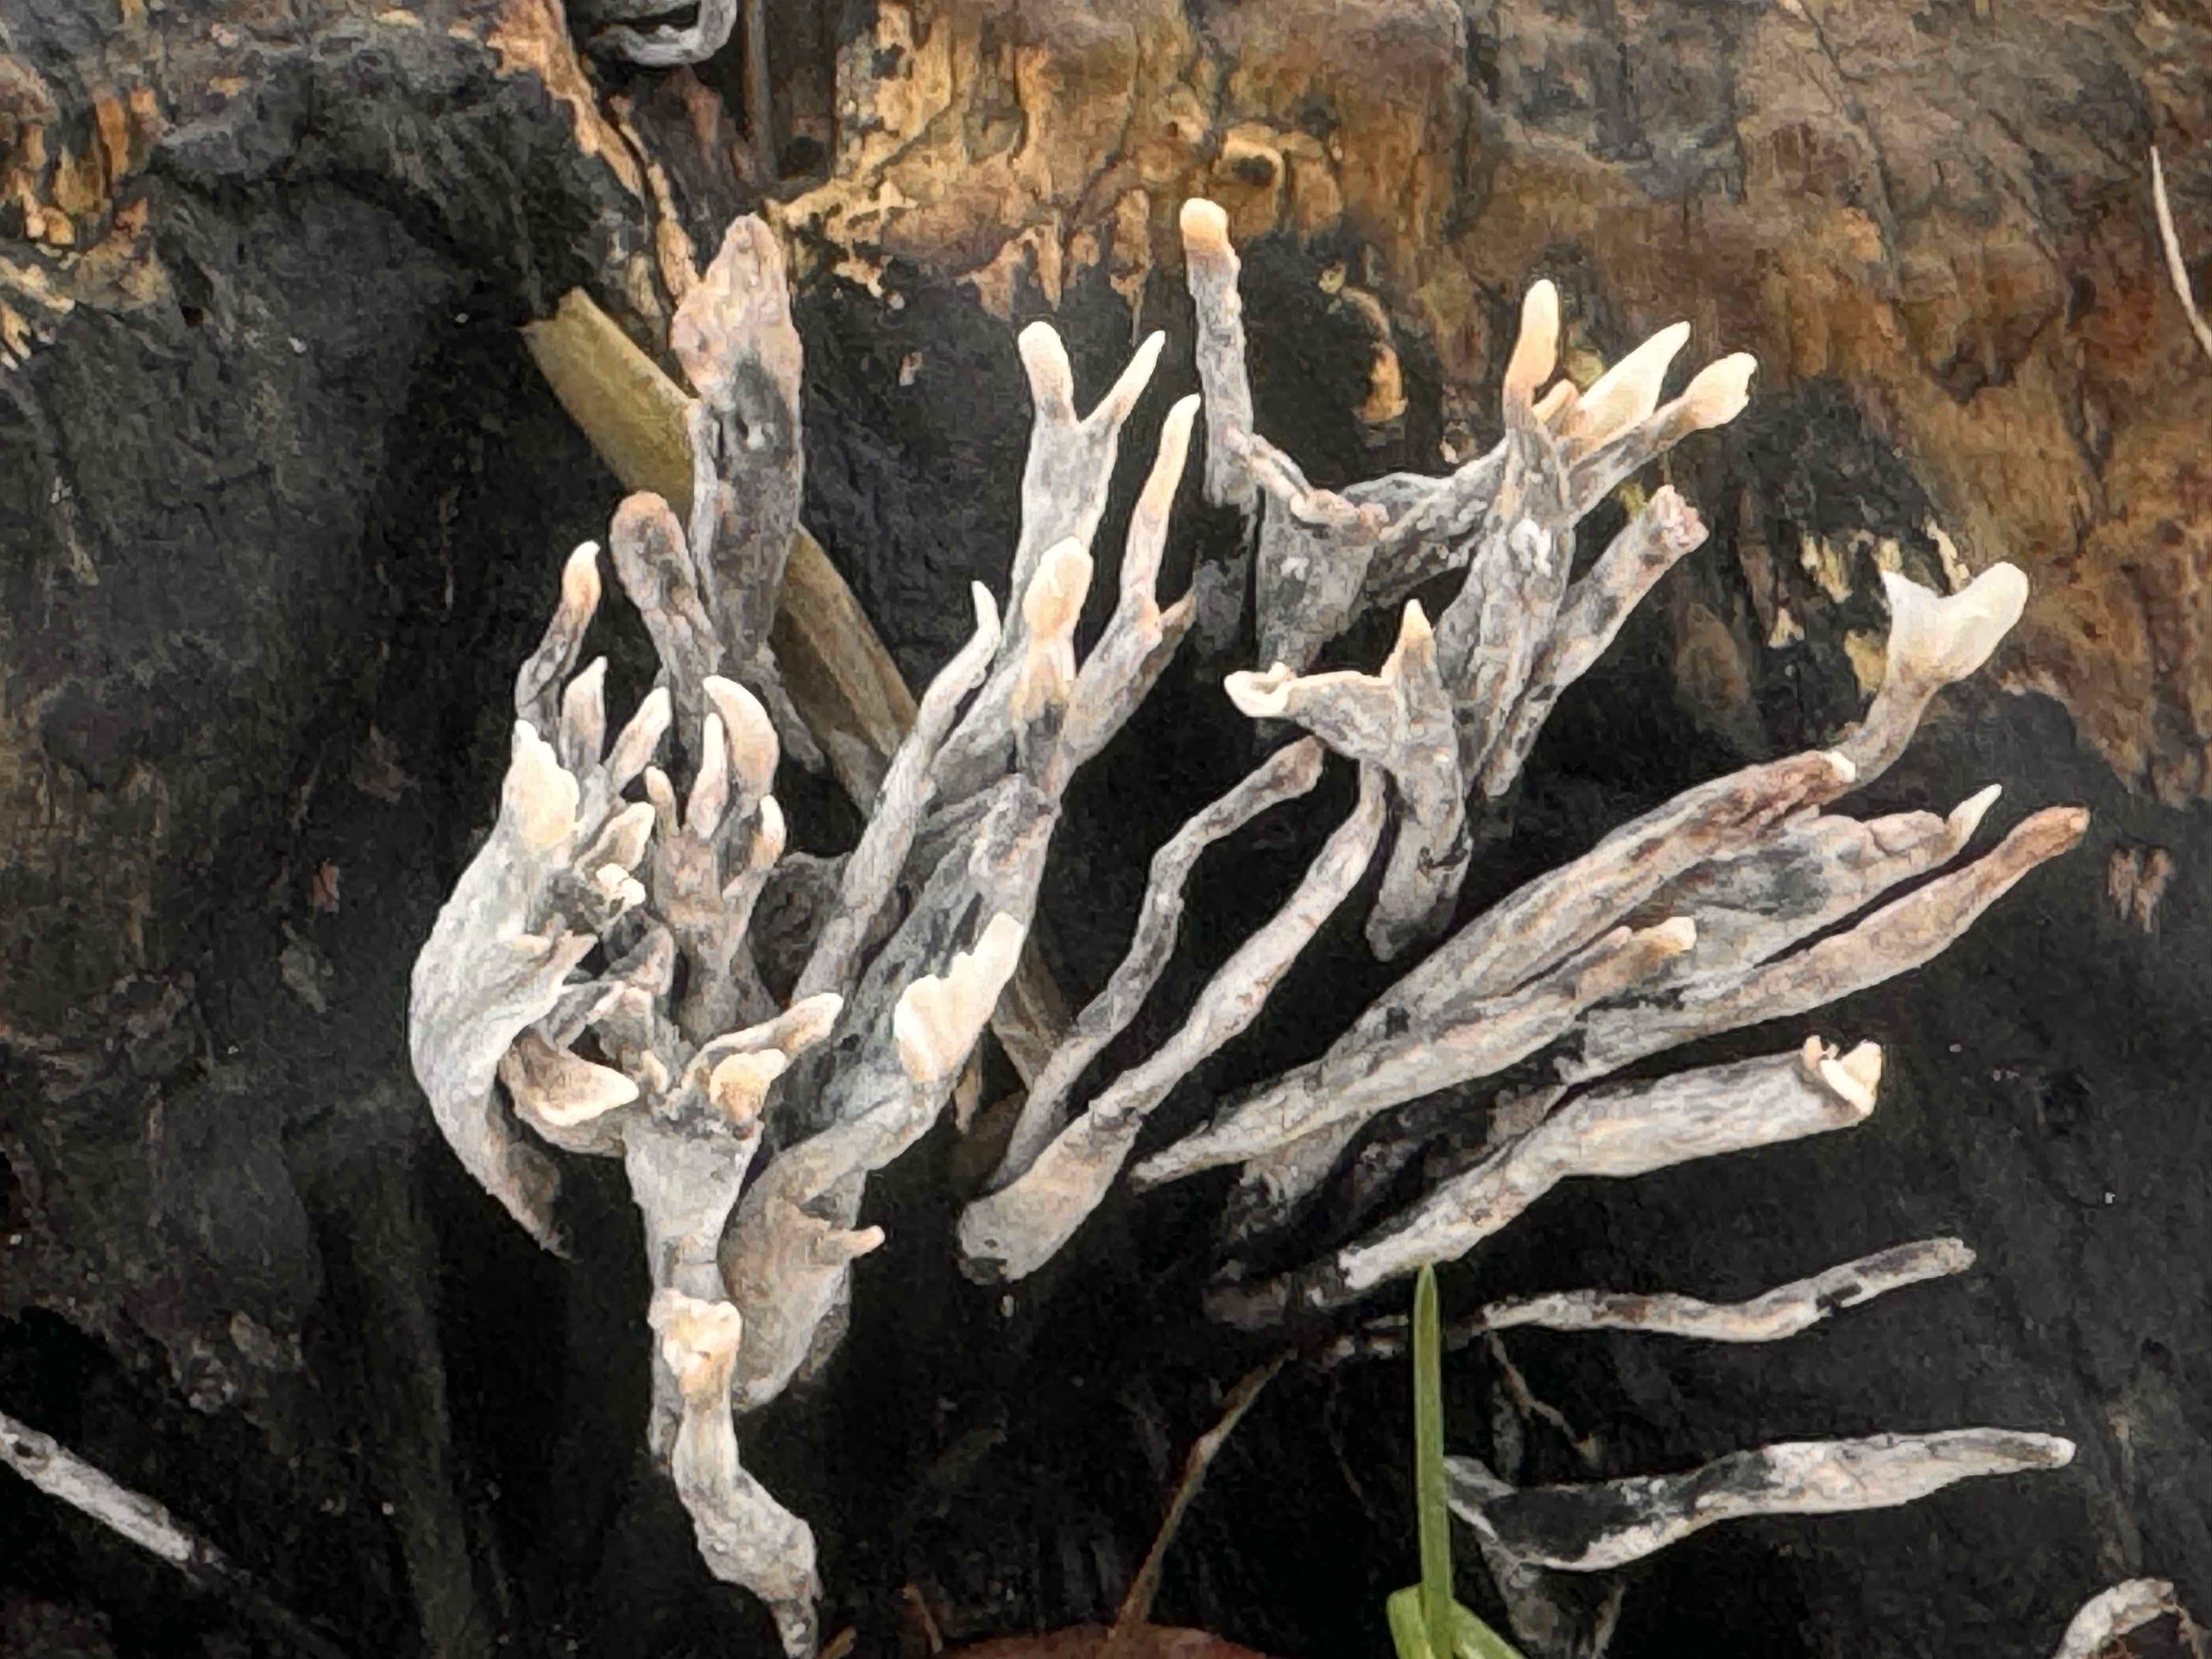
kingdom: Fungi
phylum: Ascomycota
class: Sordariomycetes
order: Xylariales
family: Xylariaceae
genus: Xylaria
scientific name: Xylaria hypoxylon
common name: grenet stødsvamp
